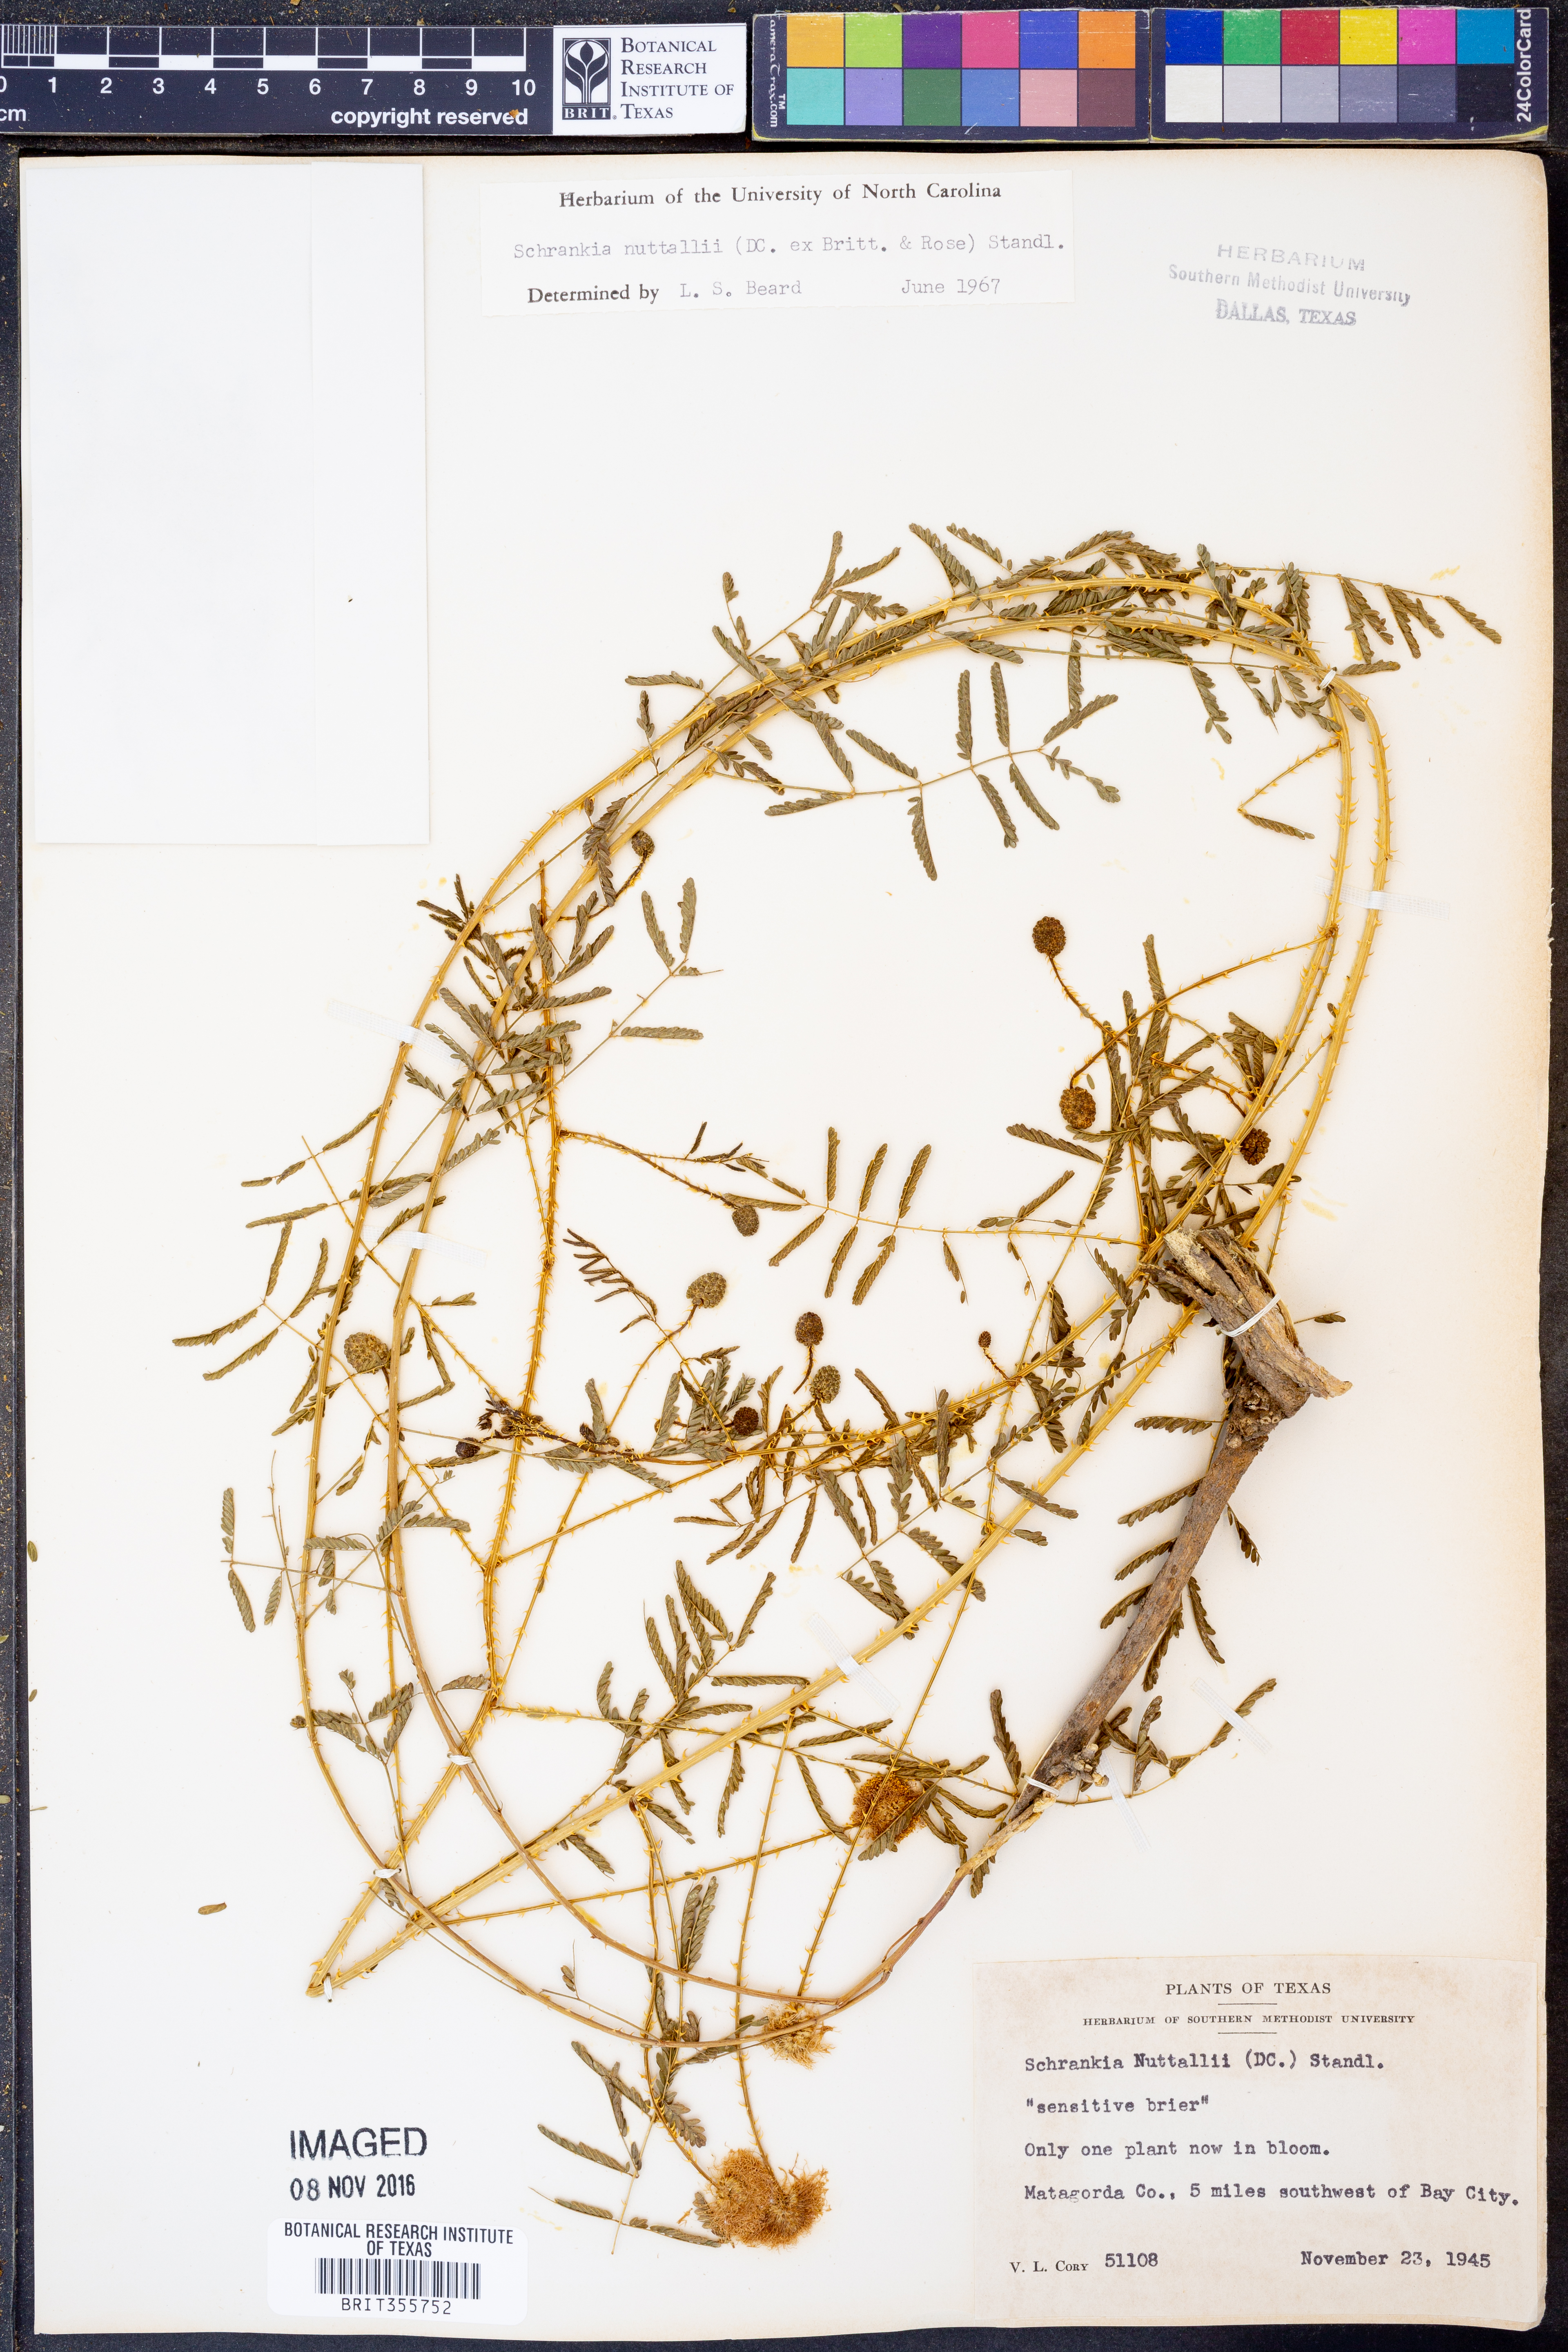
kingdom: Plantae
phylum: Tracheophyta
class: Magnoliopsida
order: Fabales
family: Fabaceae
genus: Mimosa
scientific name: Mimosa quadrivalvis
